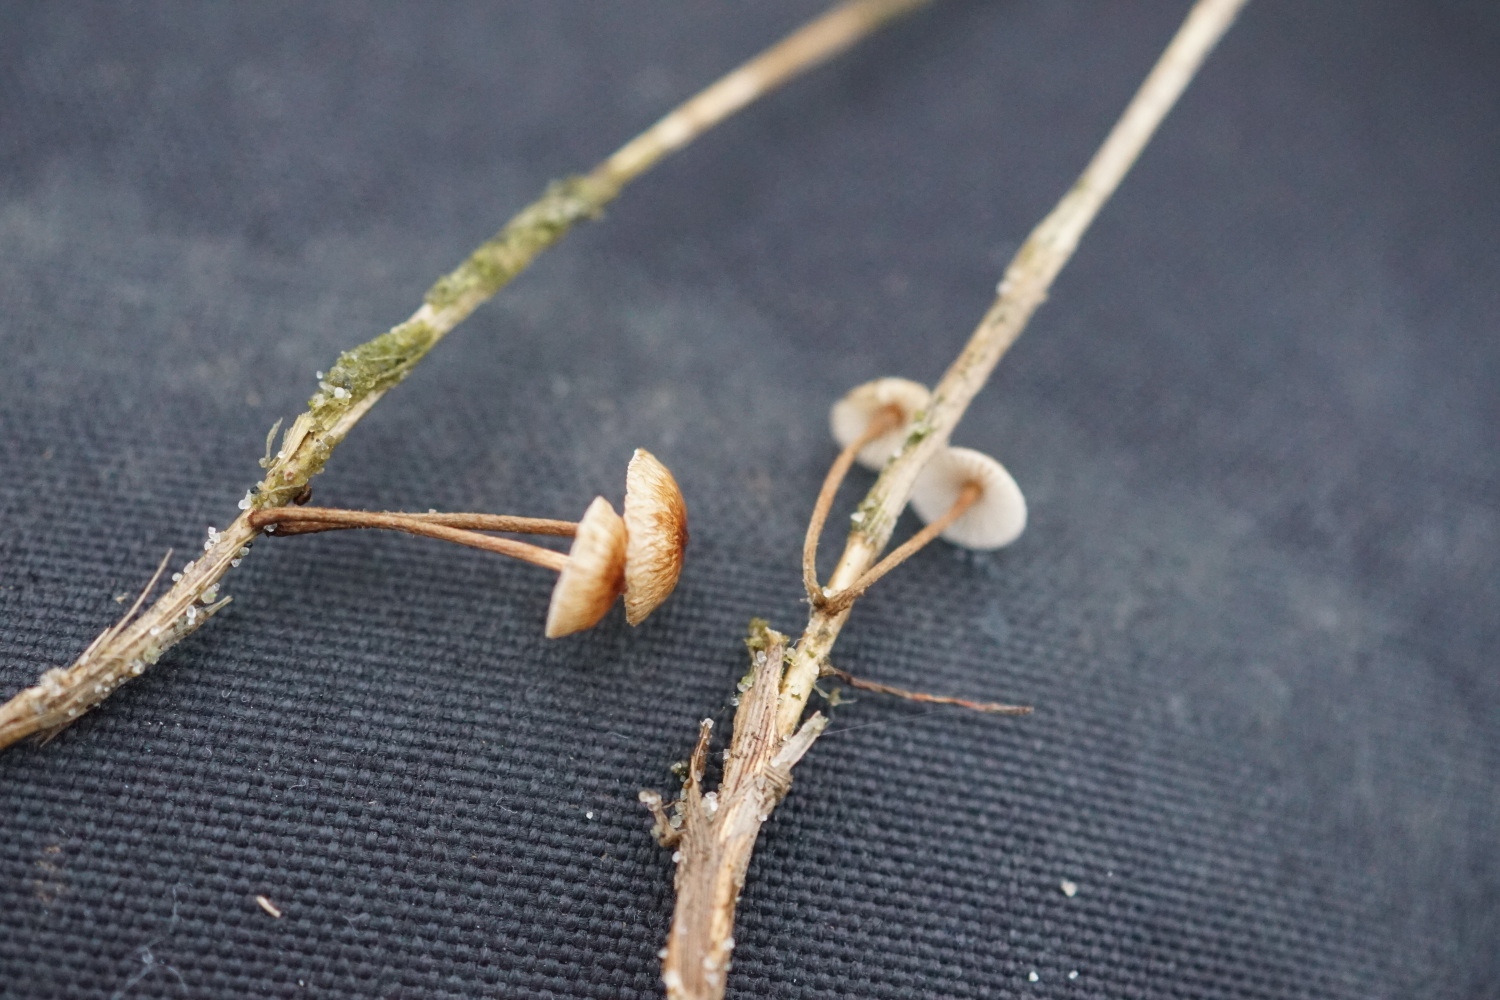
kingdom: Fungi
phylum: Basidiomycota
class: Agaricomycetes
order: Agaricales
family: Marasmiaceae
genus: Crinipellis
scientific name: Crinipellis scabella
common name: børstefod
